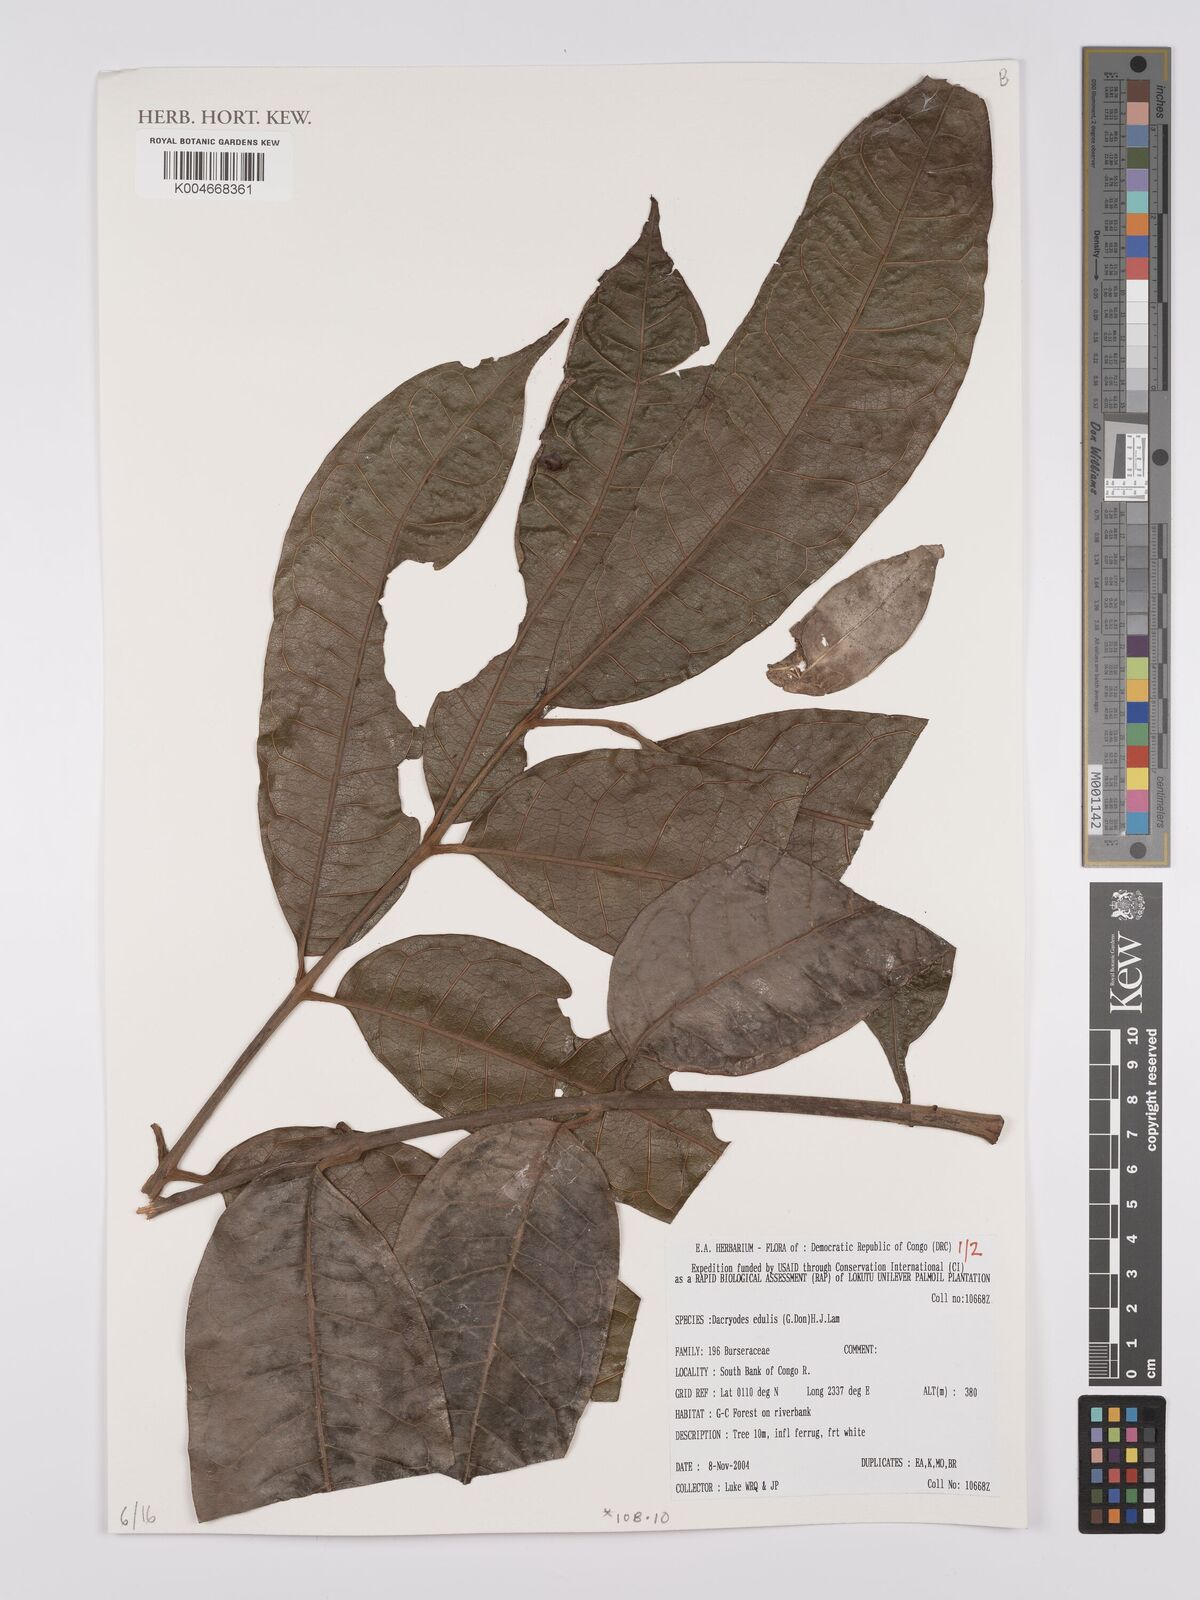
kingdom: Plantae
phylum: Tracheophyta
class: Magnoliopsida
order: Sapindales
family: Burseraceae
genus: Pachylobus
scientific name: Pachylobus edulis
